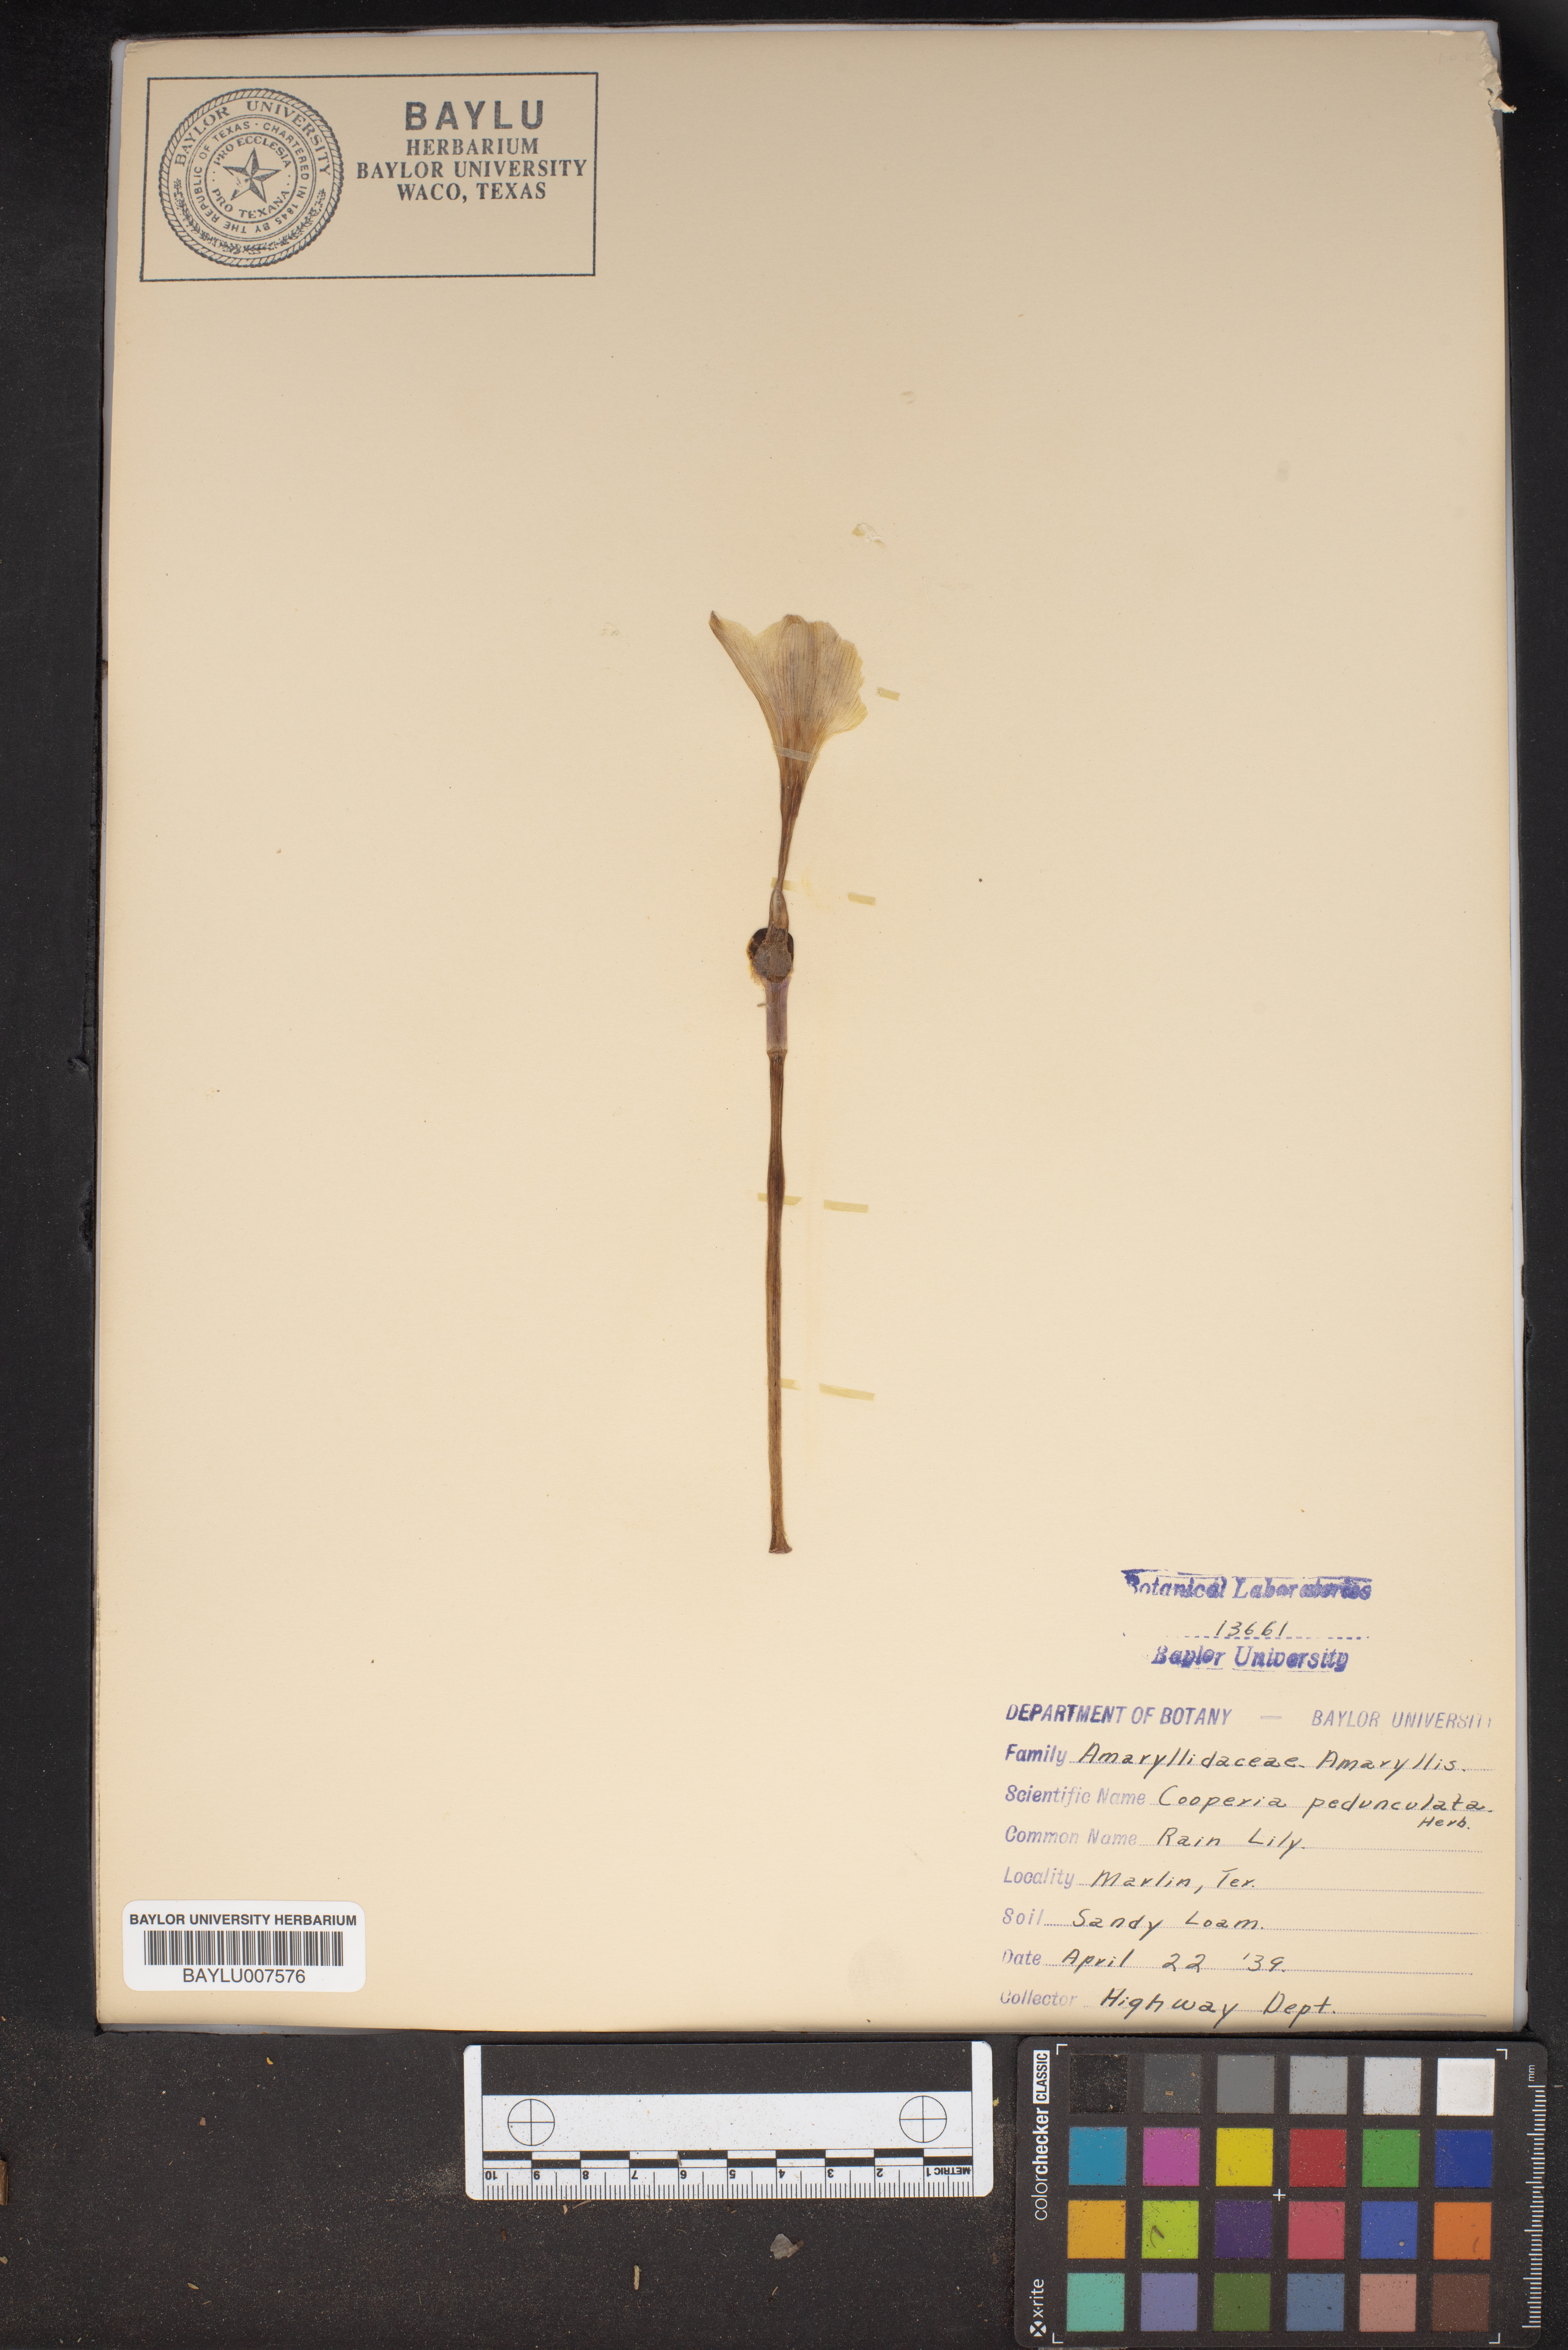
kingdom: Plantae
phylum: Tracheophyta
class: Liliopsida
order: Asparagales
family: Amaryllidaceae
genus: Zephyranthes
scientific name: Zephyranthes drummondii
